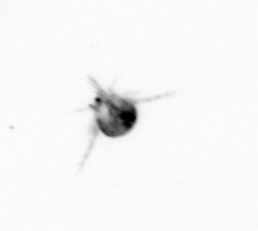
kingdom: Animalia
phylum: Arthropoda
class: Copepoda
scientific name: Copepoda
